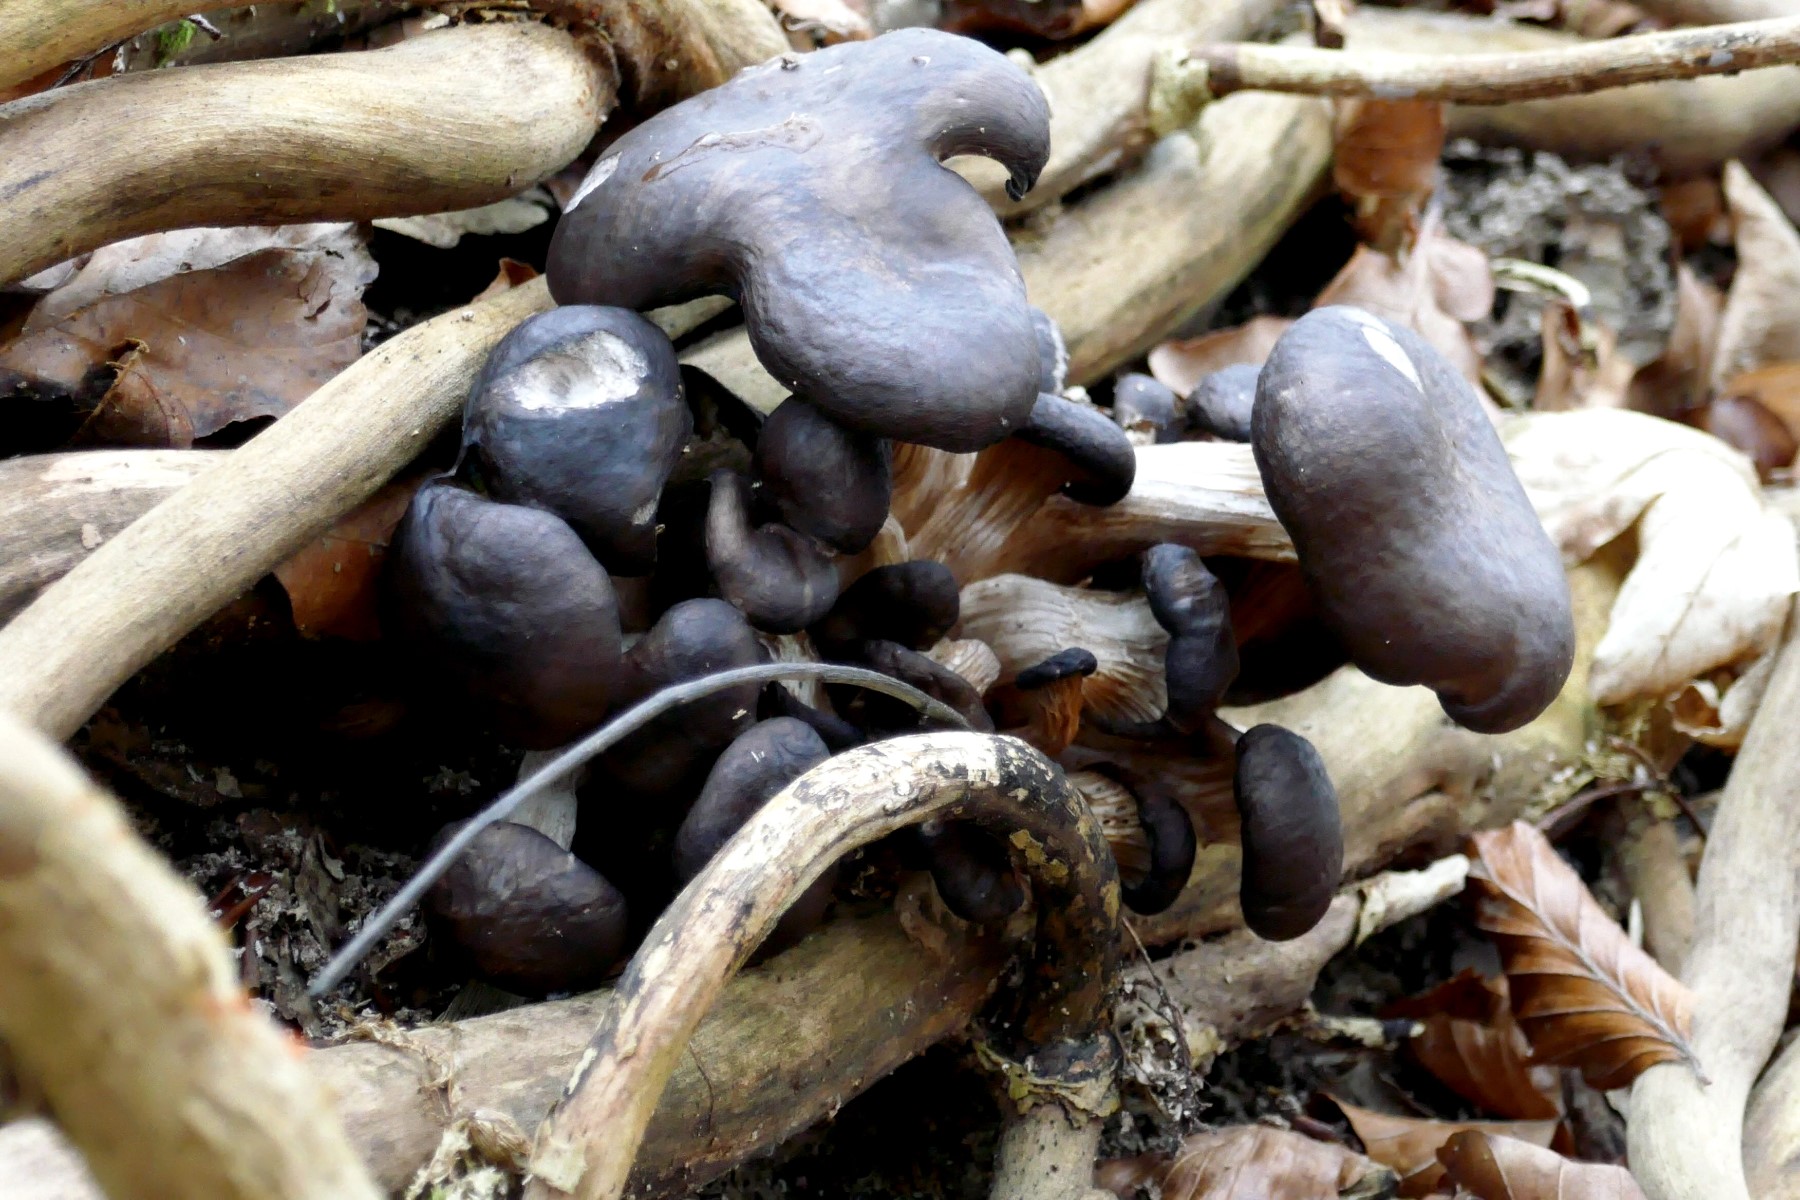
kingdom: Fungi
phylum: Basidiomycota
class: Agaricomycetes
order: Agaricales
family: Pleurotaceae
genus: Pleurotus
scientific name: Pleurotus ostreatus
